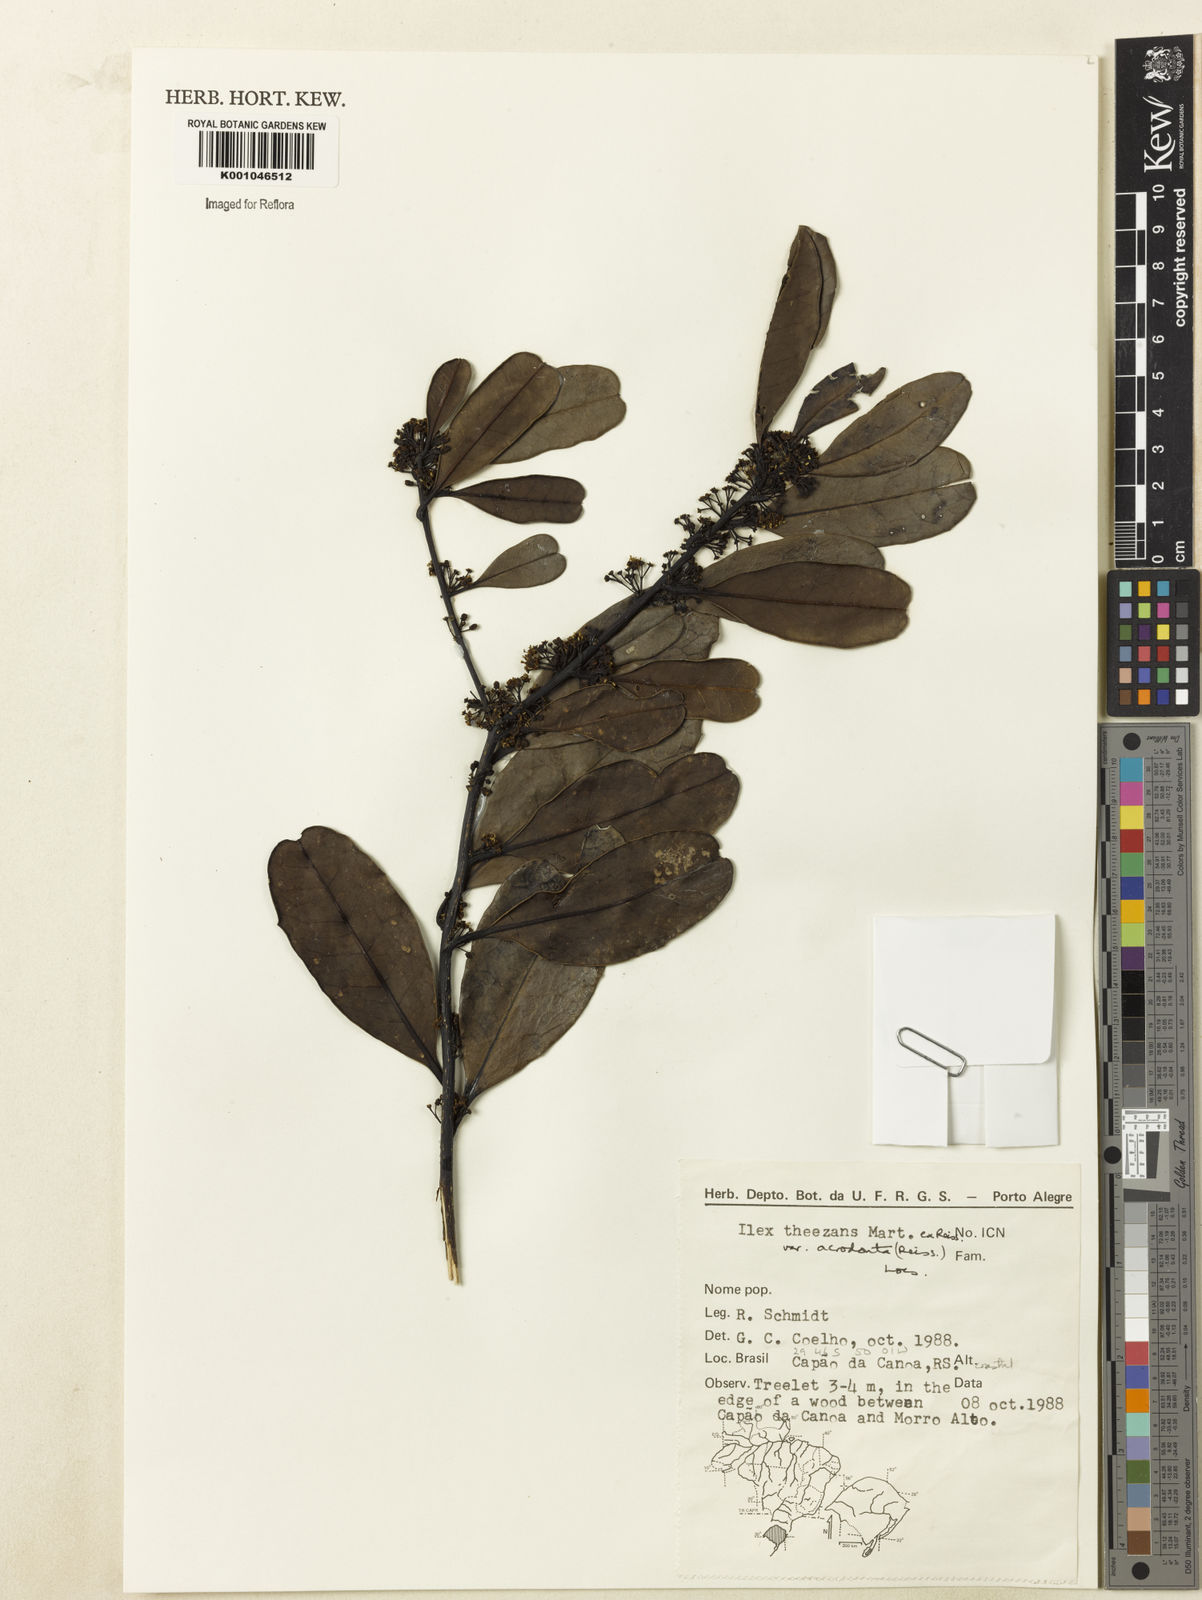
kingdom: Plantae
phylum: Tracheophyta
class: Magnoliopsida
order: Aquifoliales
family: Aquifoliaceae
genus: Ilex
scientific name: Ilex theezans
